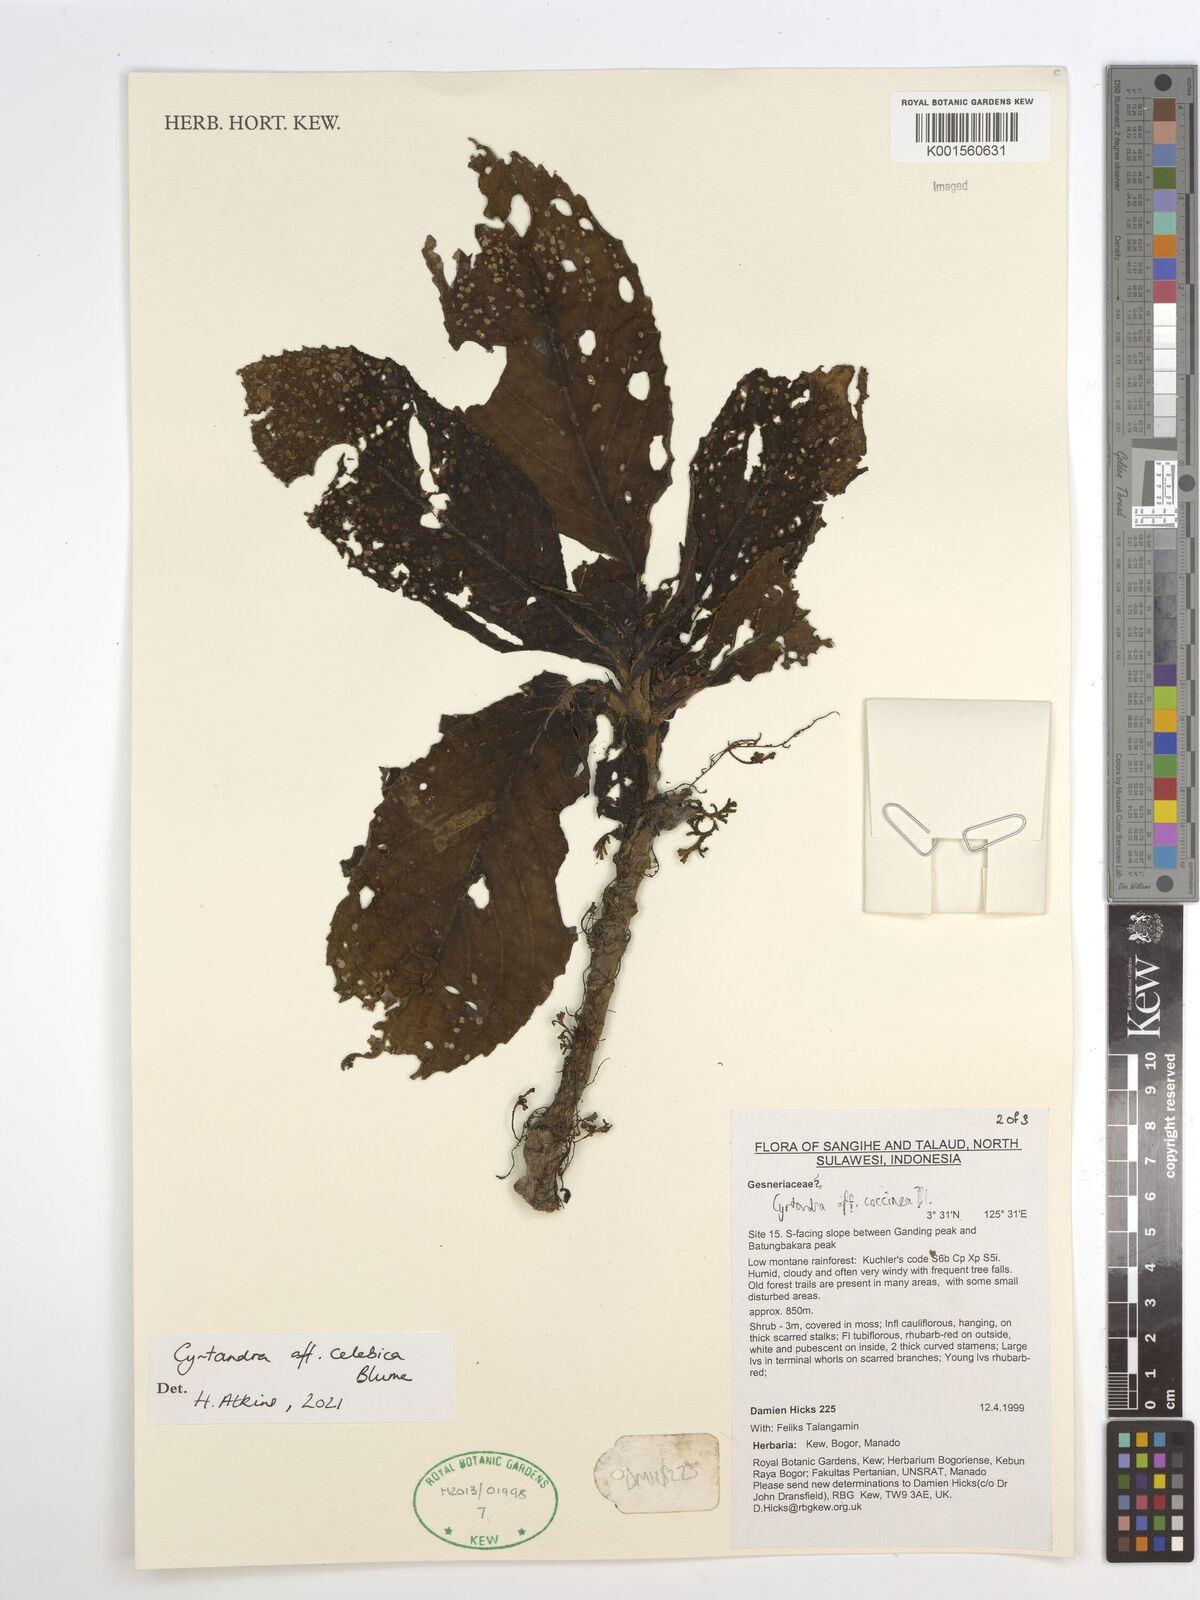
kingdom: Plantae
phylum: Tracheophyta
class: Magnoliopsida
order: Lamiales
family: Gesneriaceae
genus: Cyrtandra
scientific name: Cyrtandra coccinea
